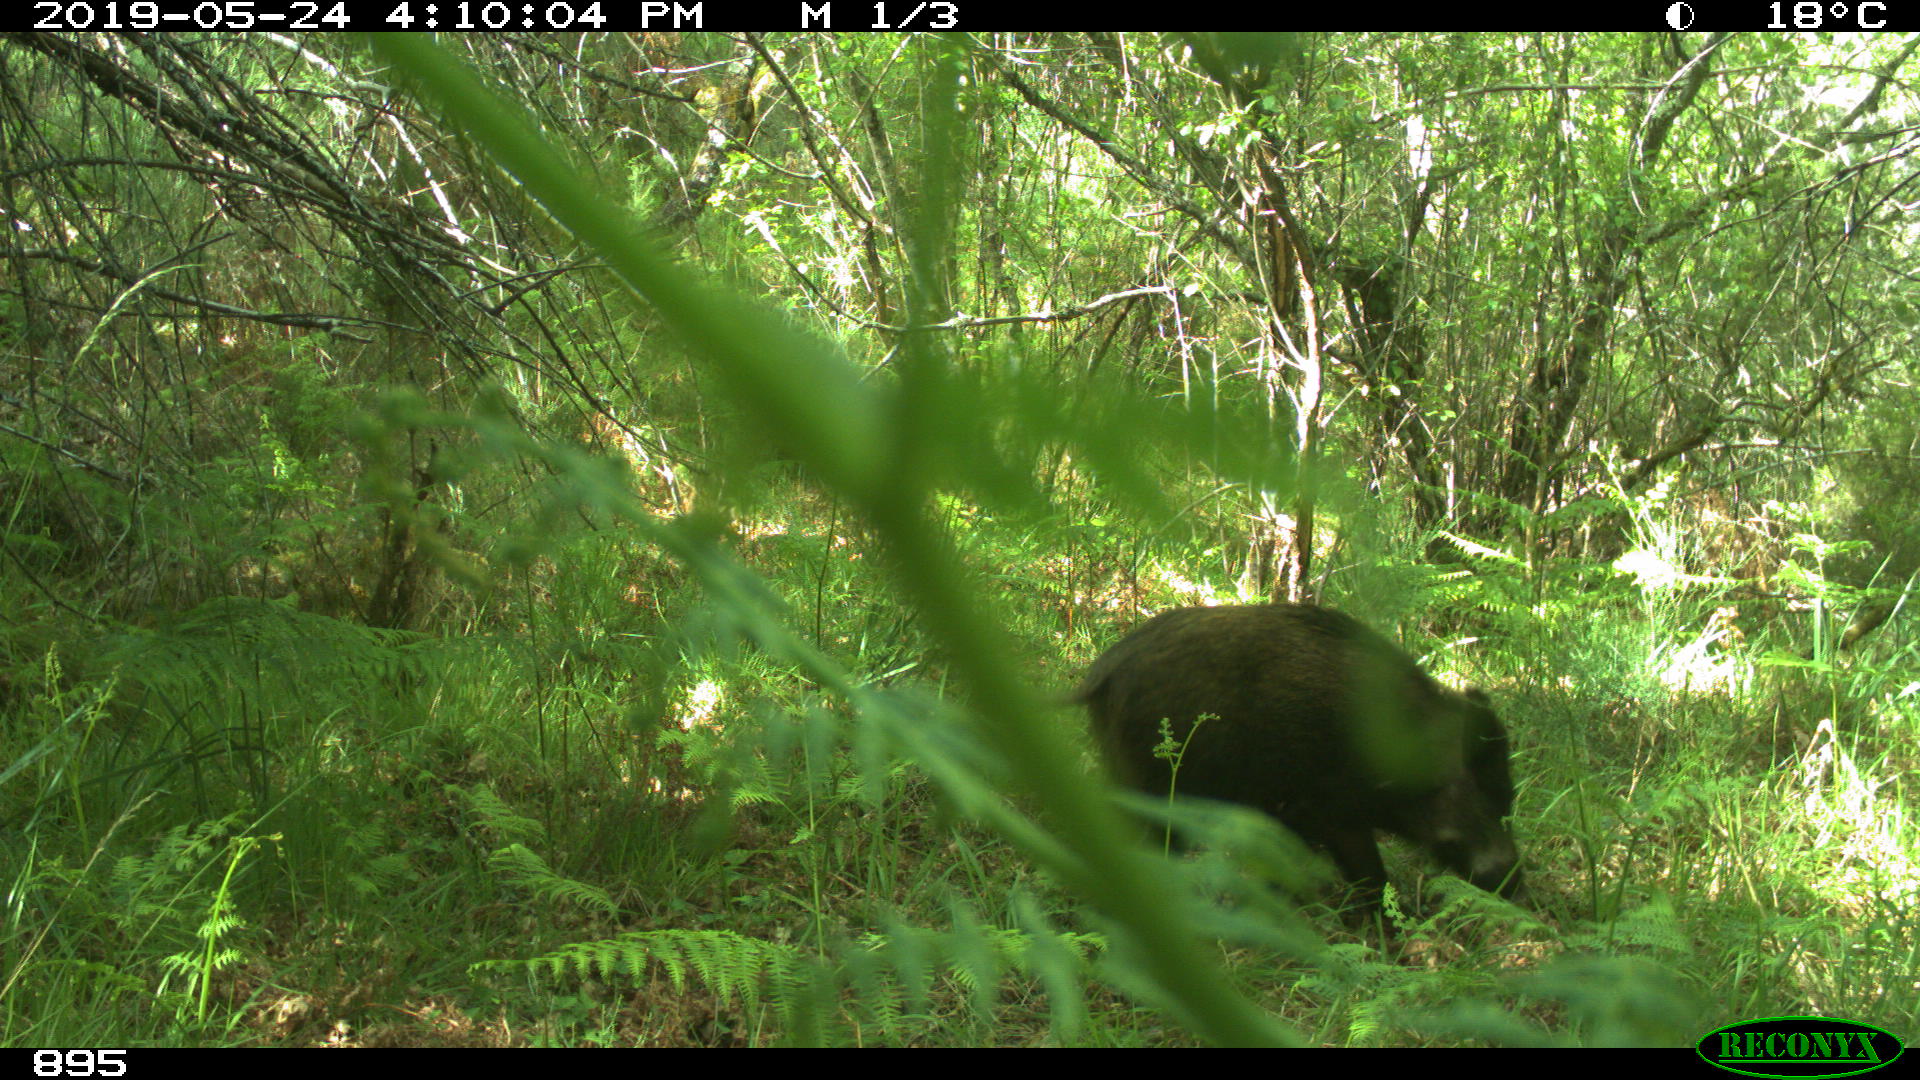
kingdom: Animalia
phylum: Chordata
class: Mammalia
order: Artiodactyla
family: Suidae
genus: Sus
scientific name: Sus scrofa
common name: Wild boar
